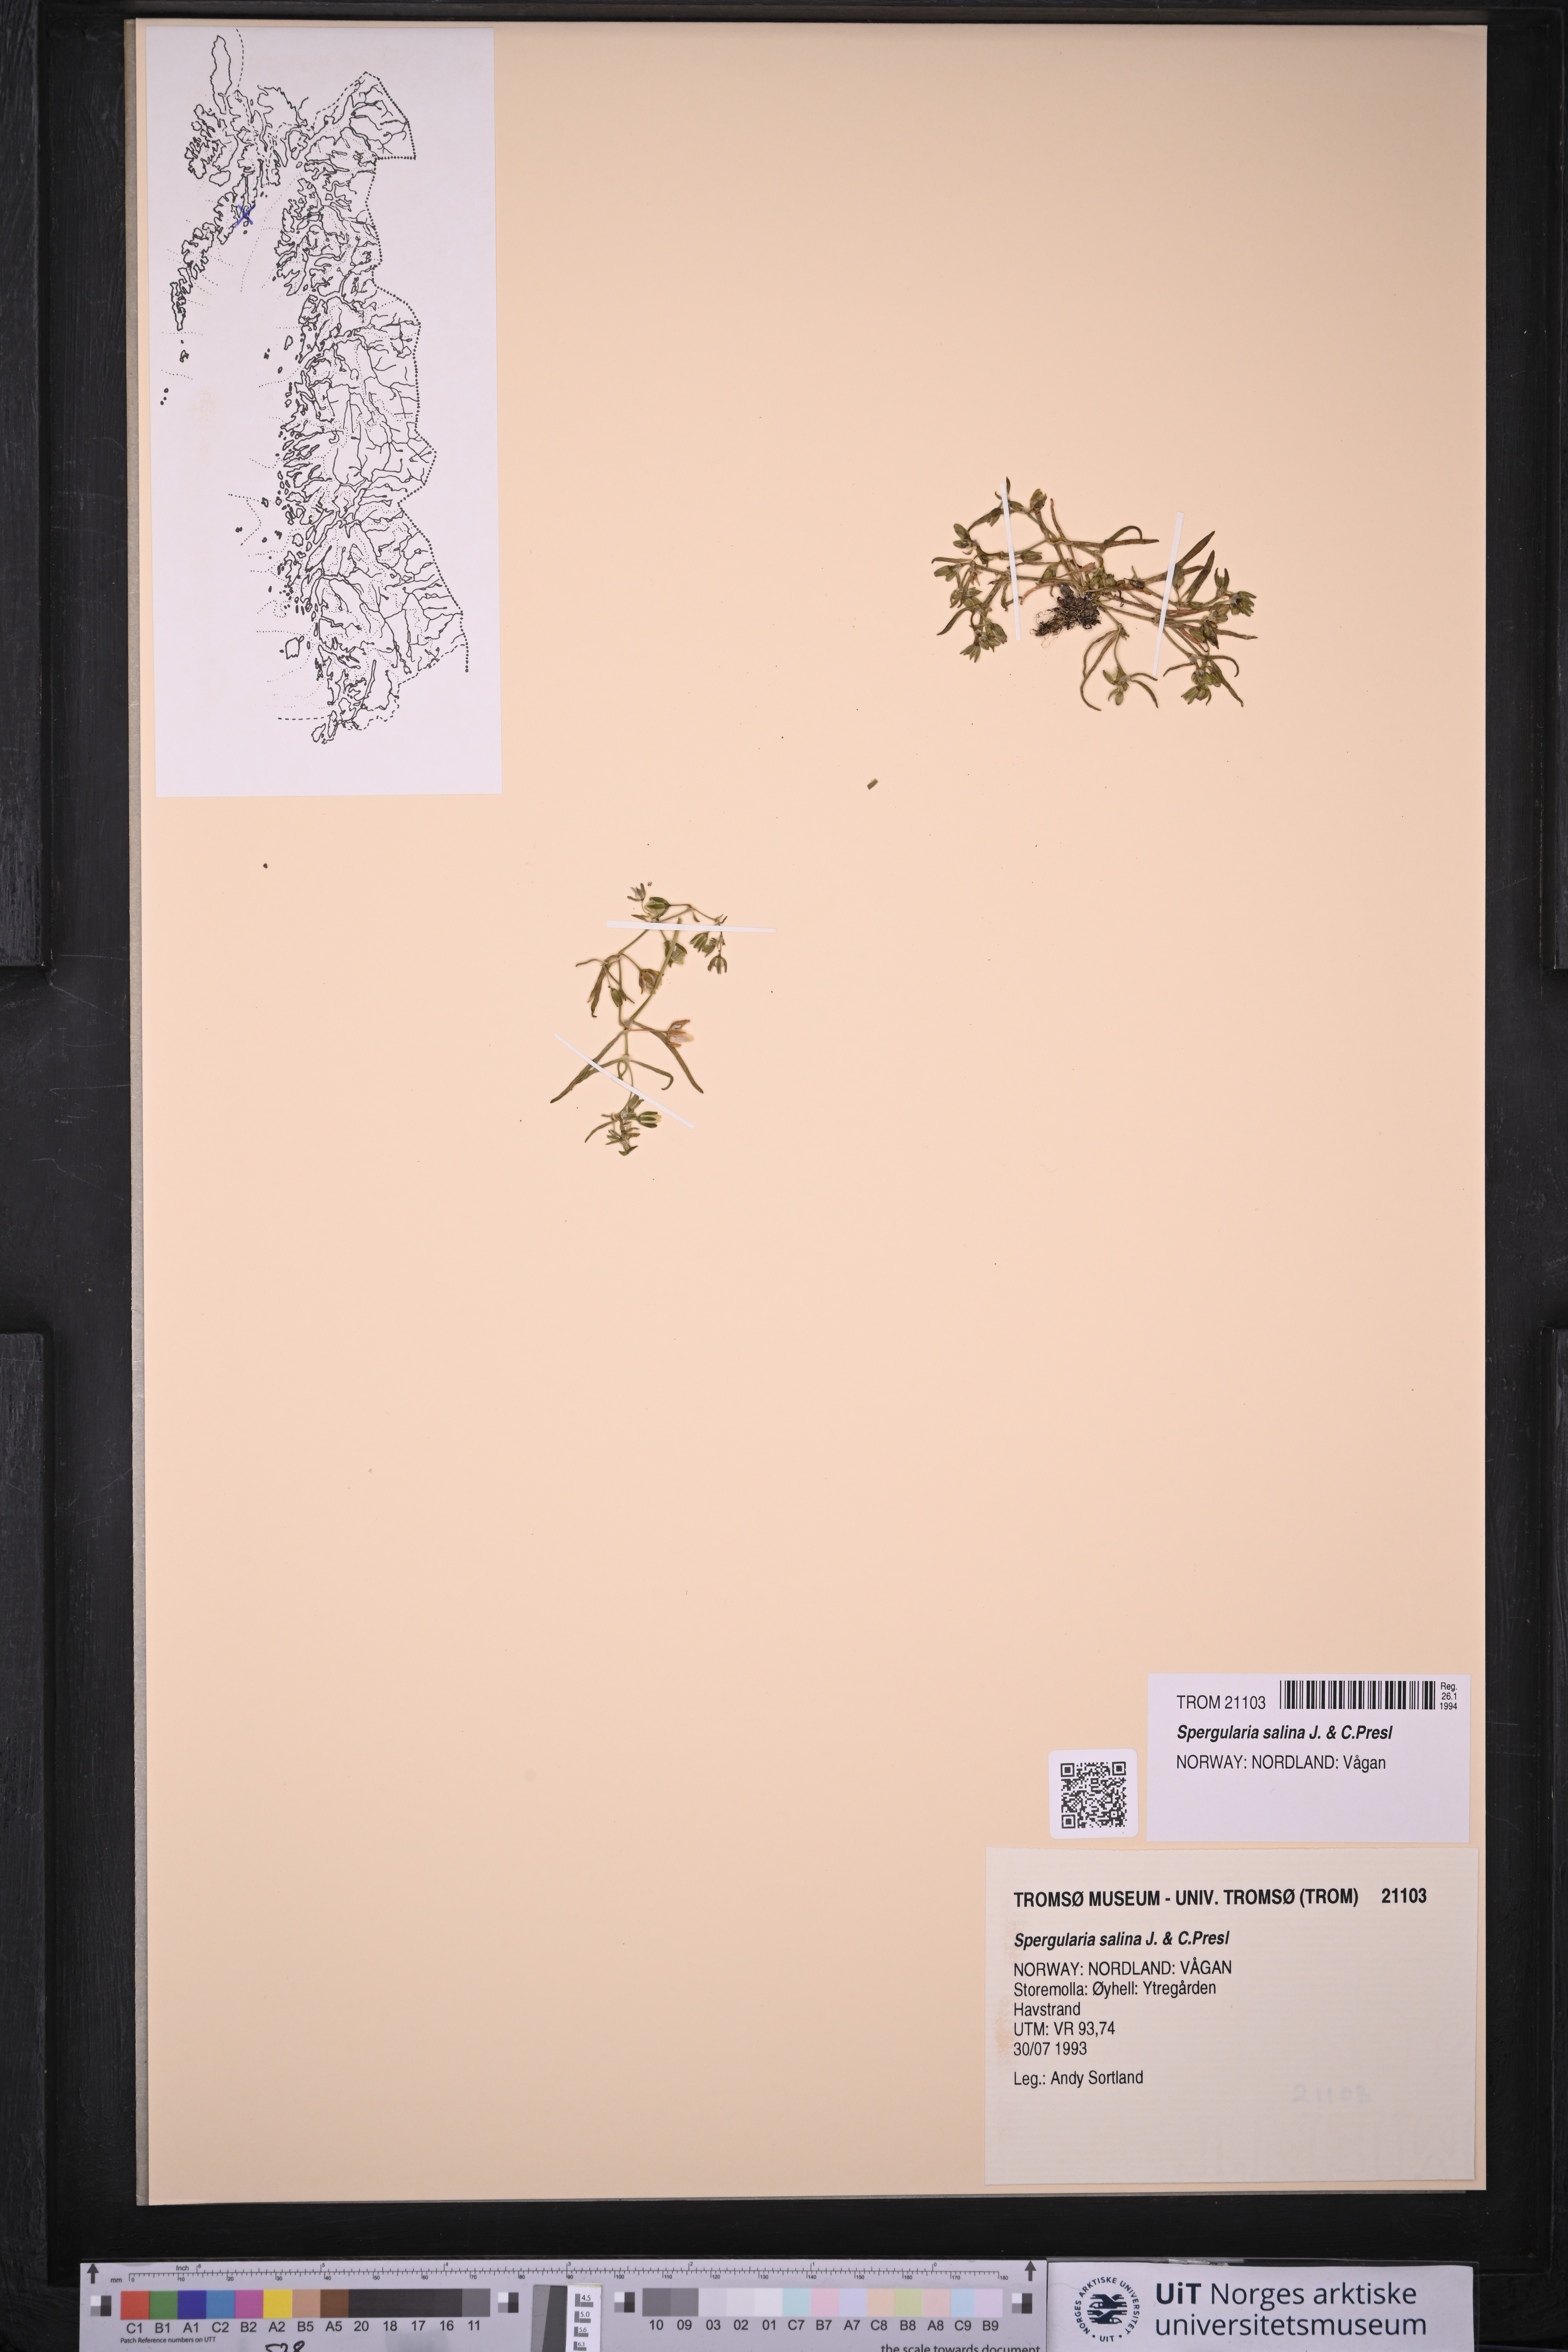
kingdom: Plantae
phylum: Tracheophyta
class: Magnoliopsida
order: Caryophyllales
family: Caryophyllaceae
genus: Spergularia
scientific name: Spergularia marina
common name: Lesser sea-spurrey
